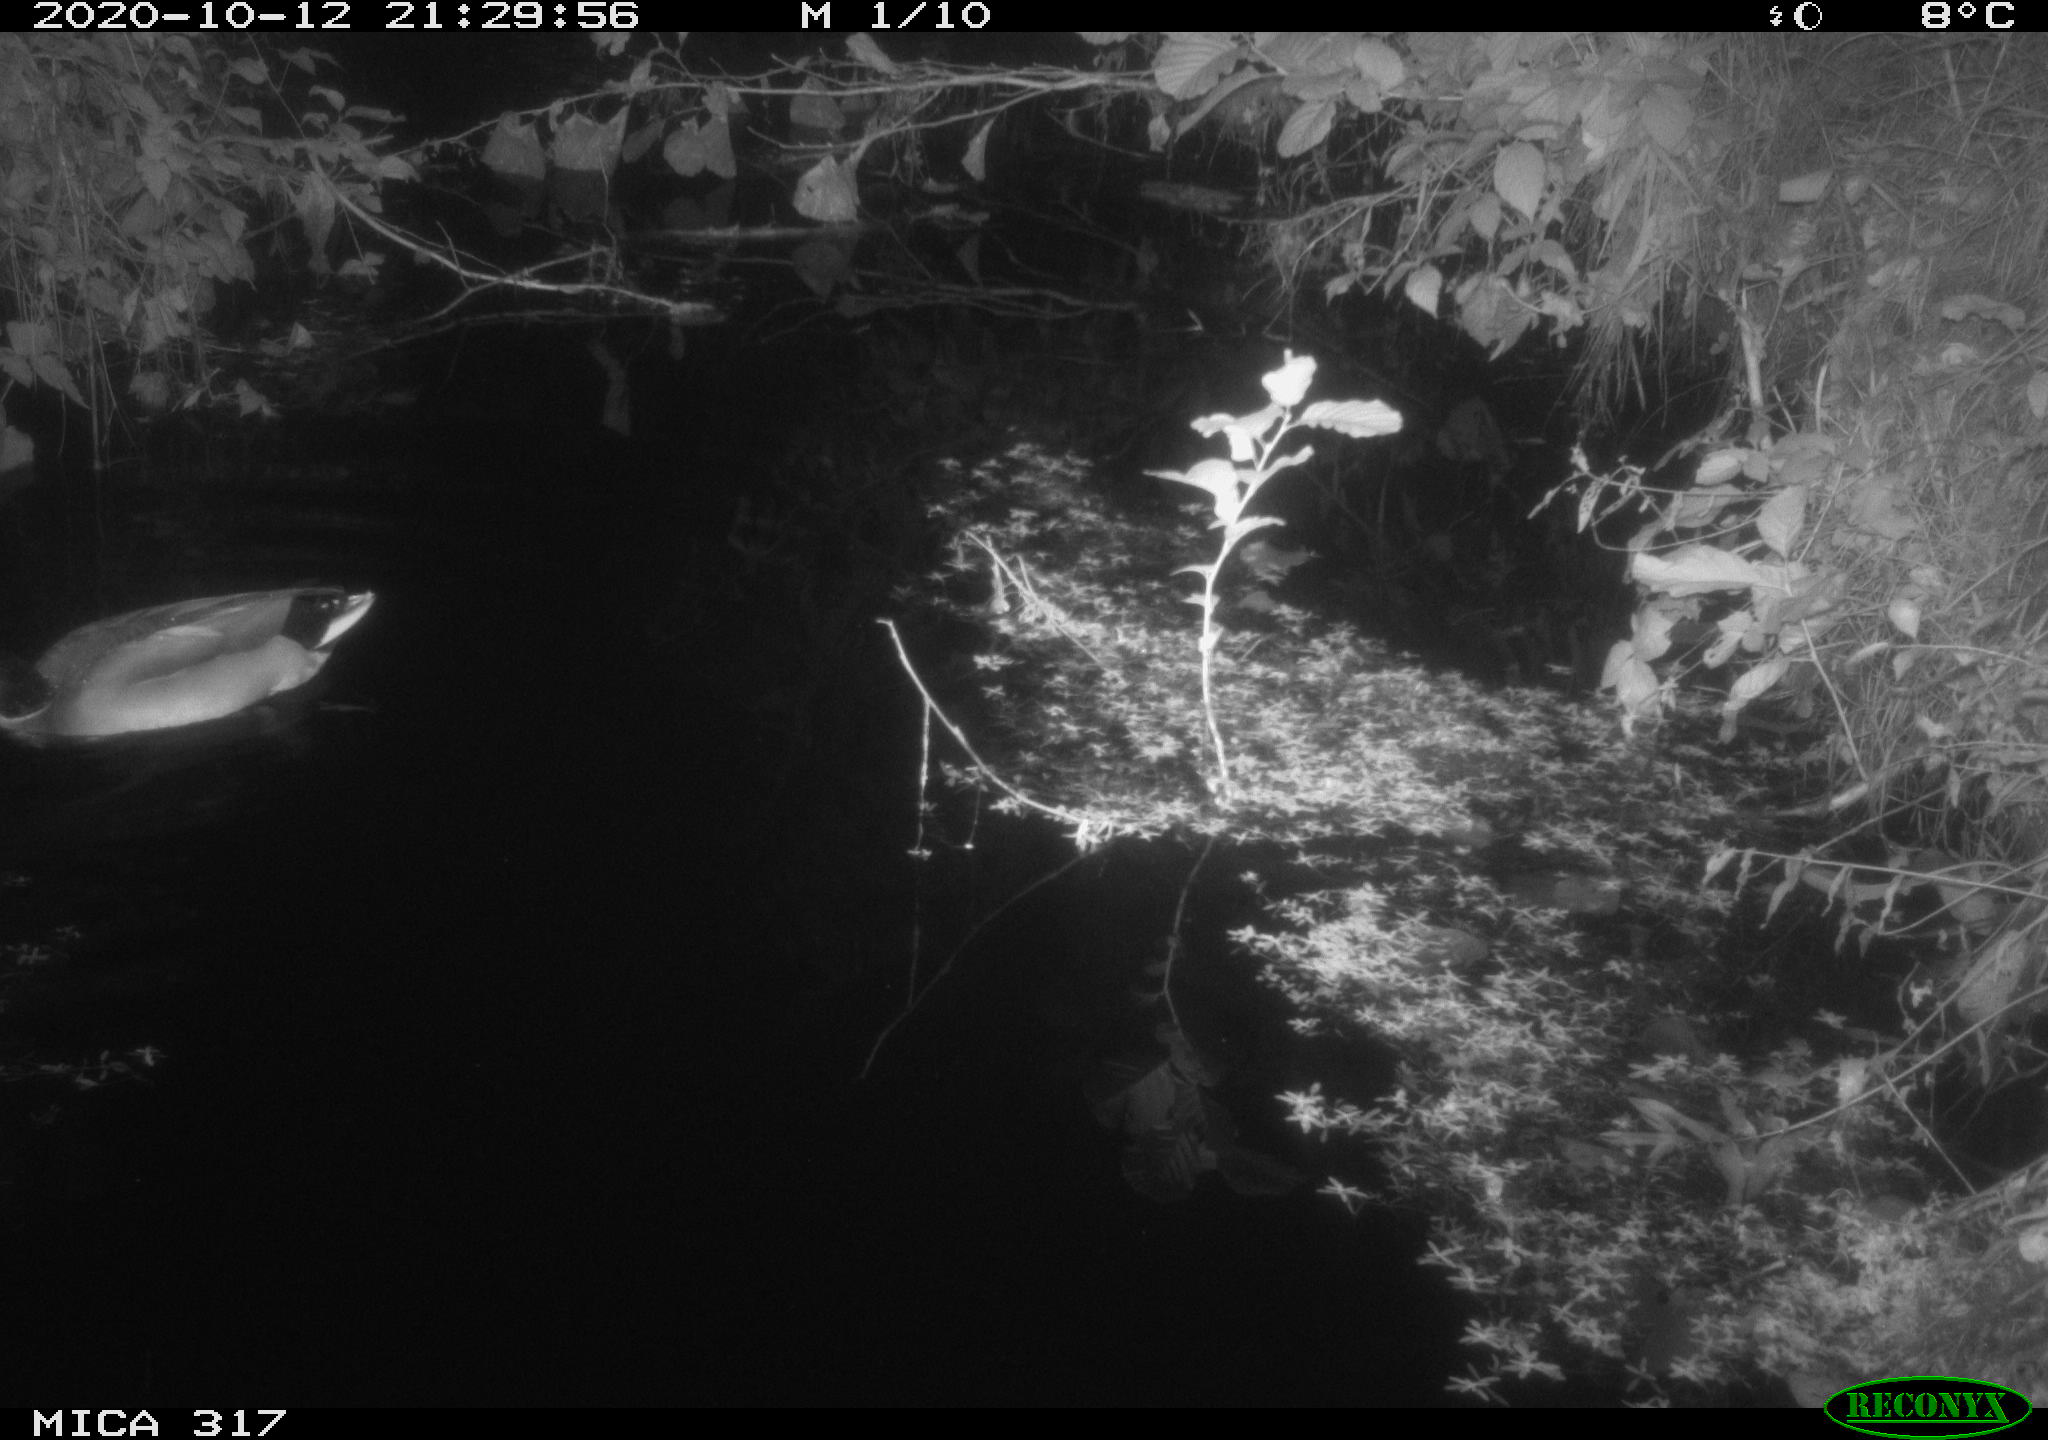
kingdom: Animalia
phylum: Chordata
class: Aves
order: Anseriformes
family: Anatidae
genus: Anas
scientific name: Anas platyrhynchos
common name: Mallard
